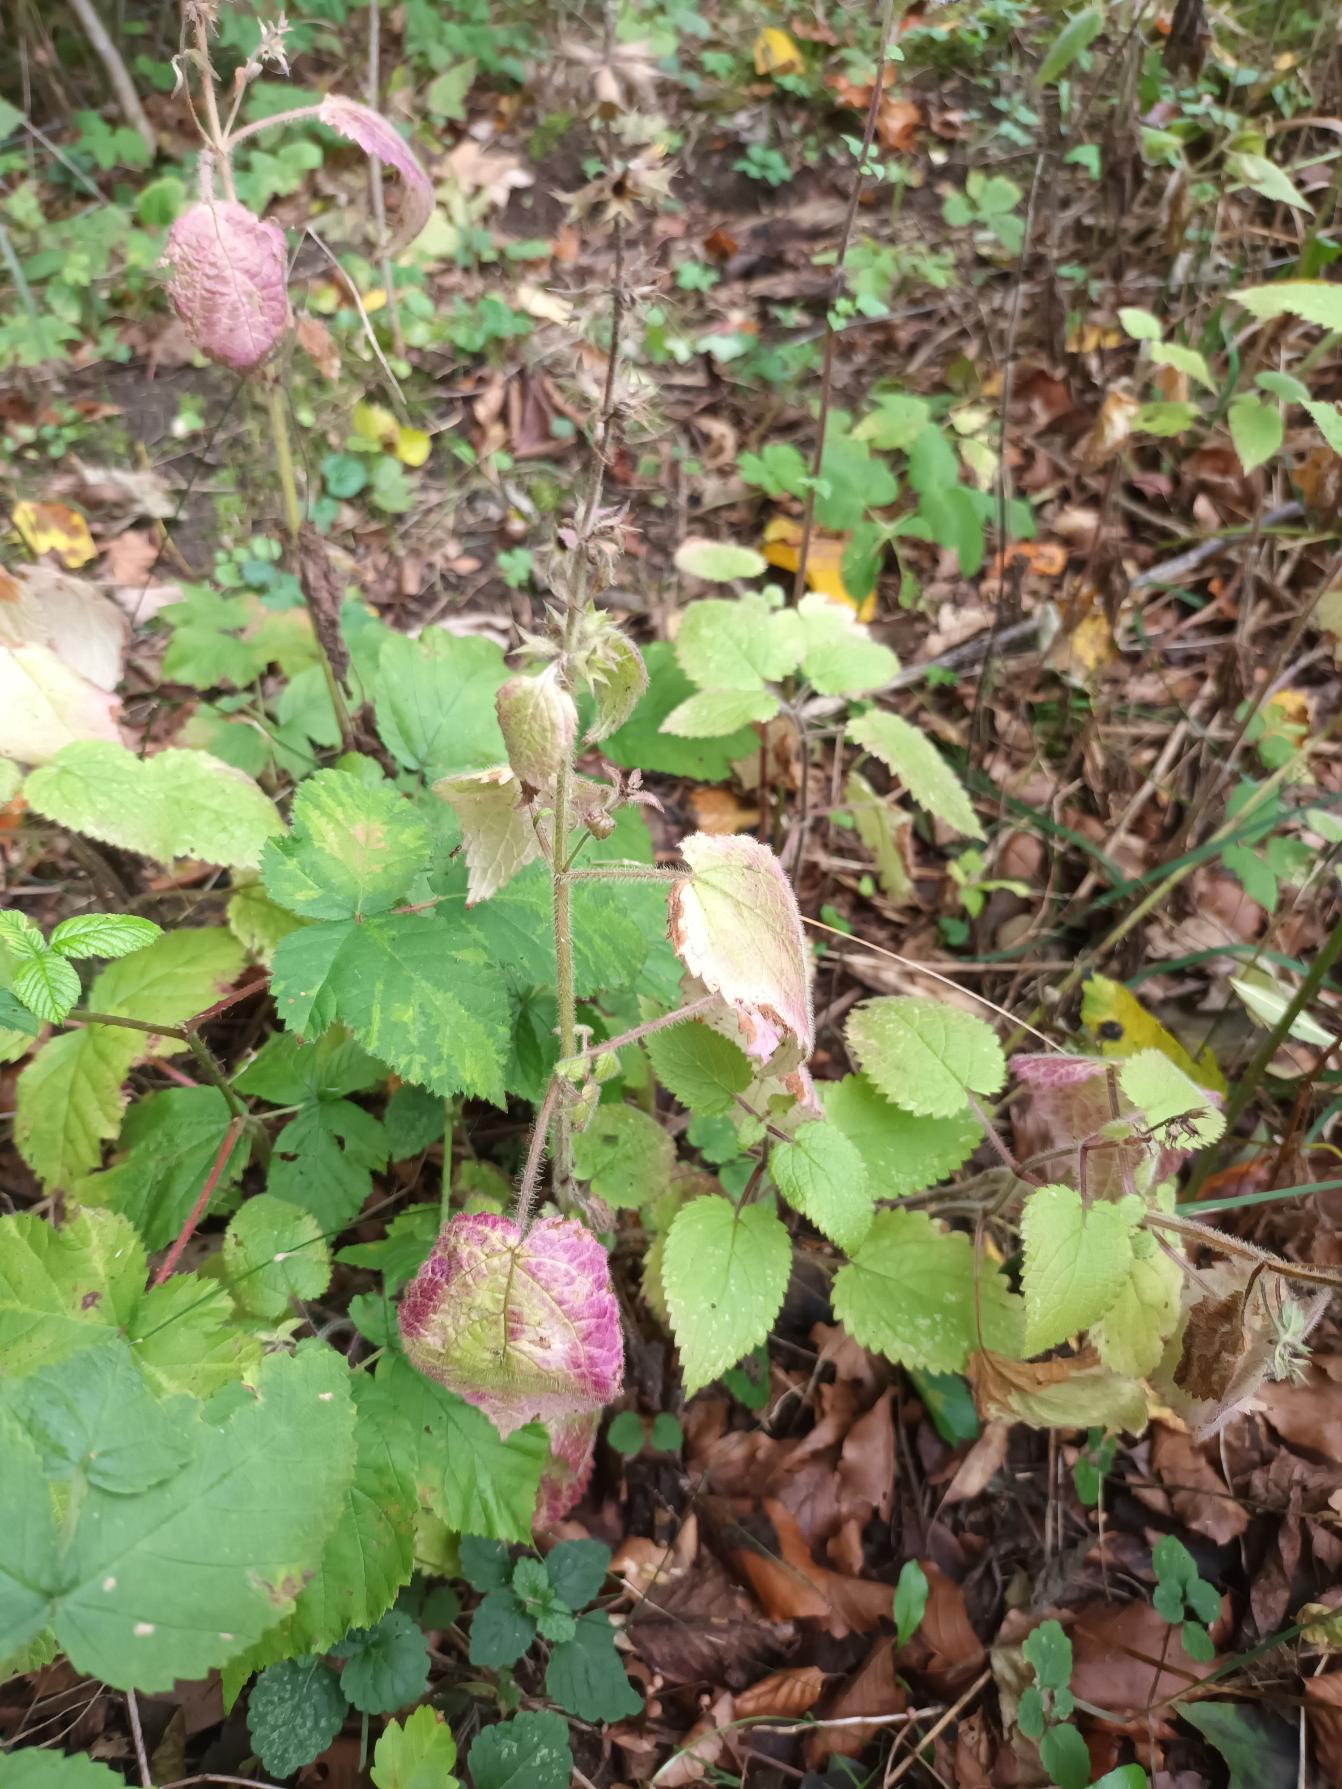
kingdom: Plantae
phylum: Tracheophyta
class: Magnoliopsida
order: Lamiales
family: Lamiaceae
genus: Stachys
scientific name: Stachys sylvatica
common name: Skov-galtetand
